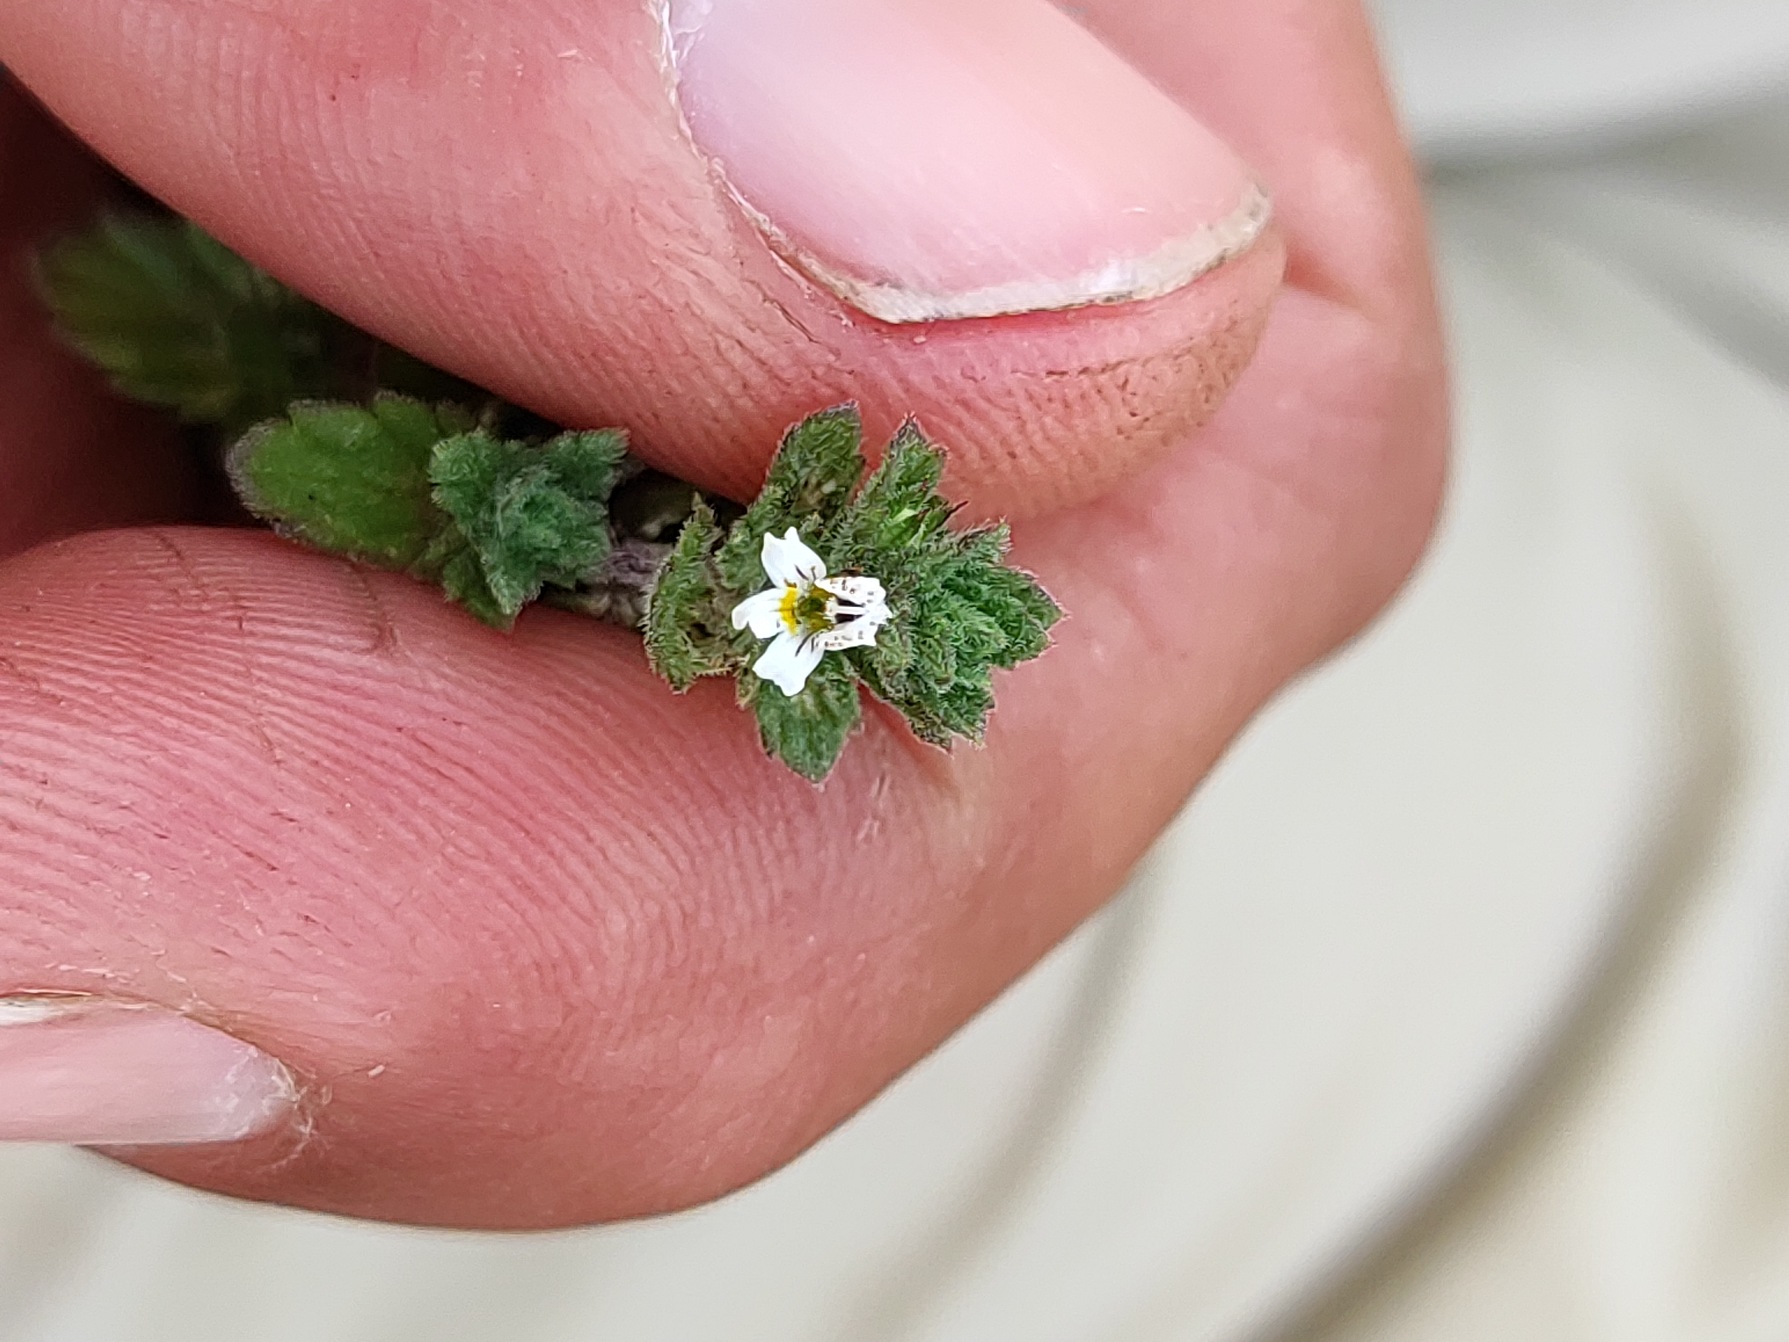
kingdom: Plantae
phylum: Tracheophyta
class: Magnoliopsida
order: Lamiales
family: Orobanchaceae
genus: Euphrasia
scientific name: Euphrasia nemorosa
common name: Kort øjentrøst
